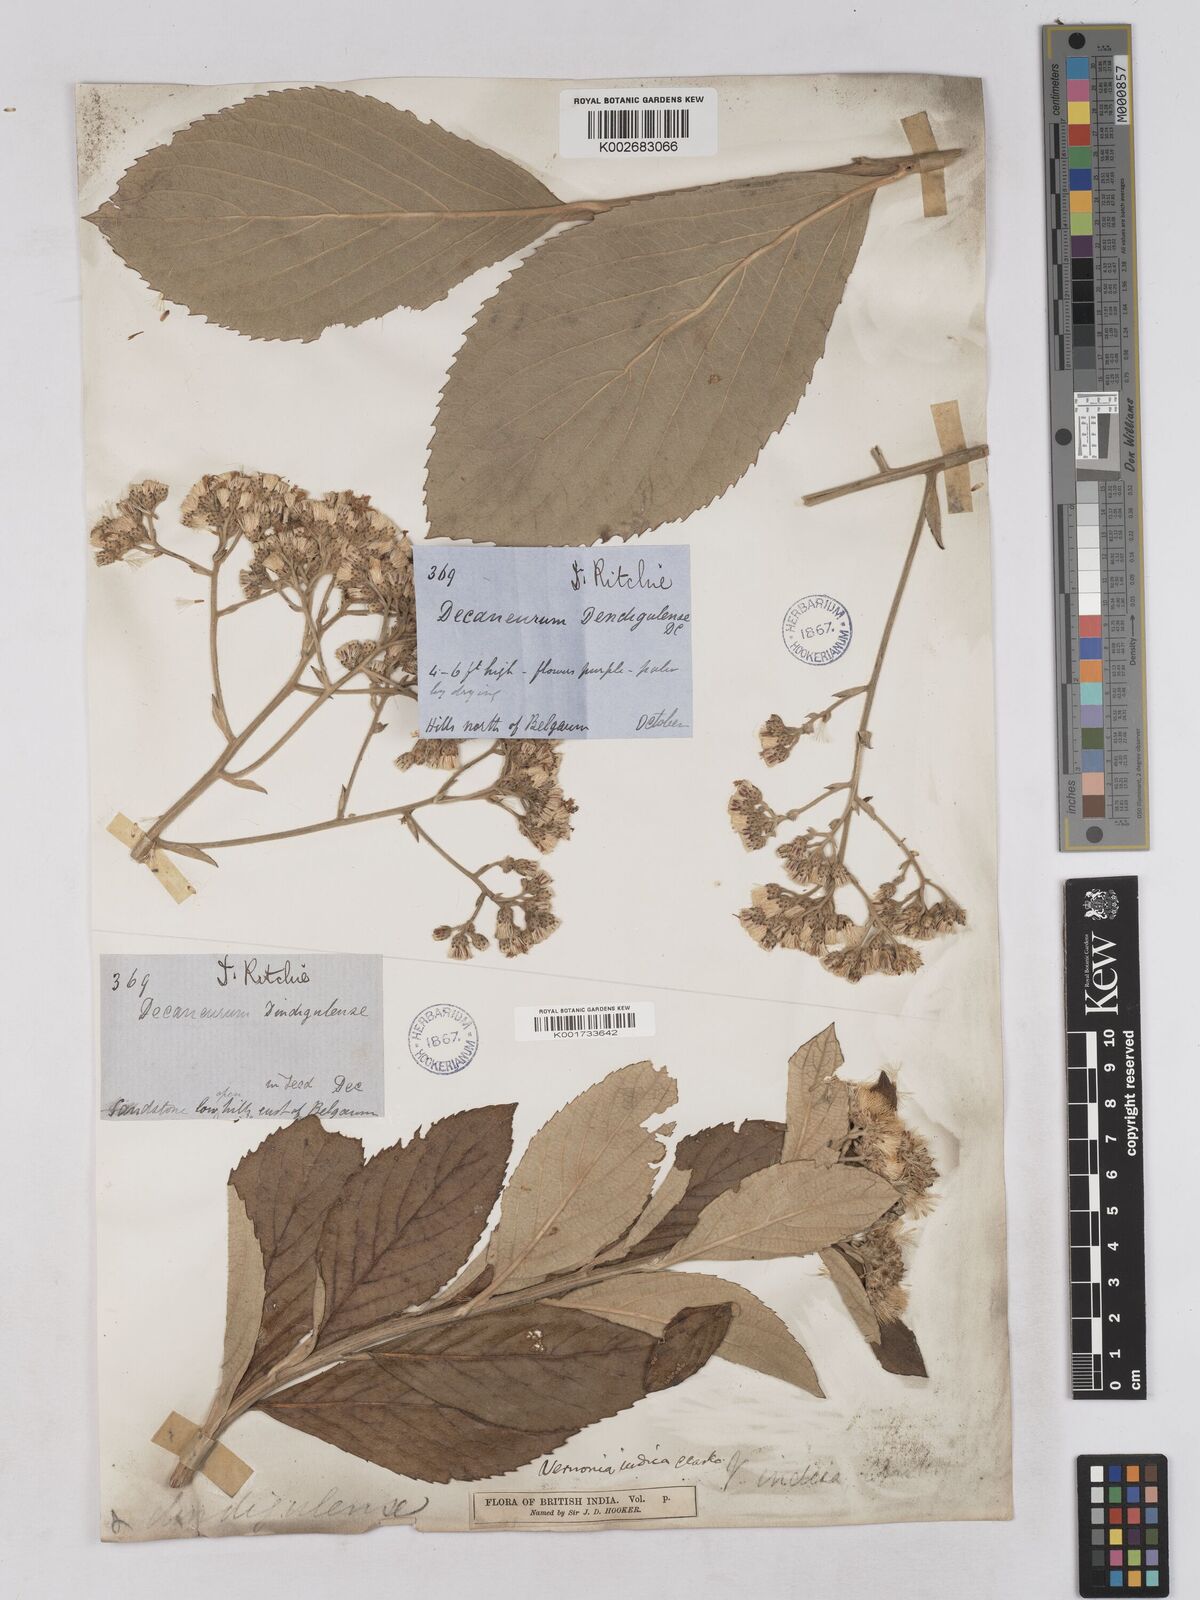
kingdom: Plantae
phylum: Tracheophyta
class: Magnoliopsida
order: Asterales
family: Asteraceae
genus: Acilepis
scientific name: Acilepis dendigulensis
